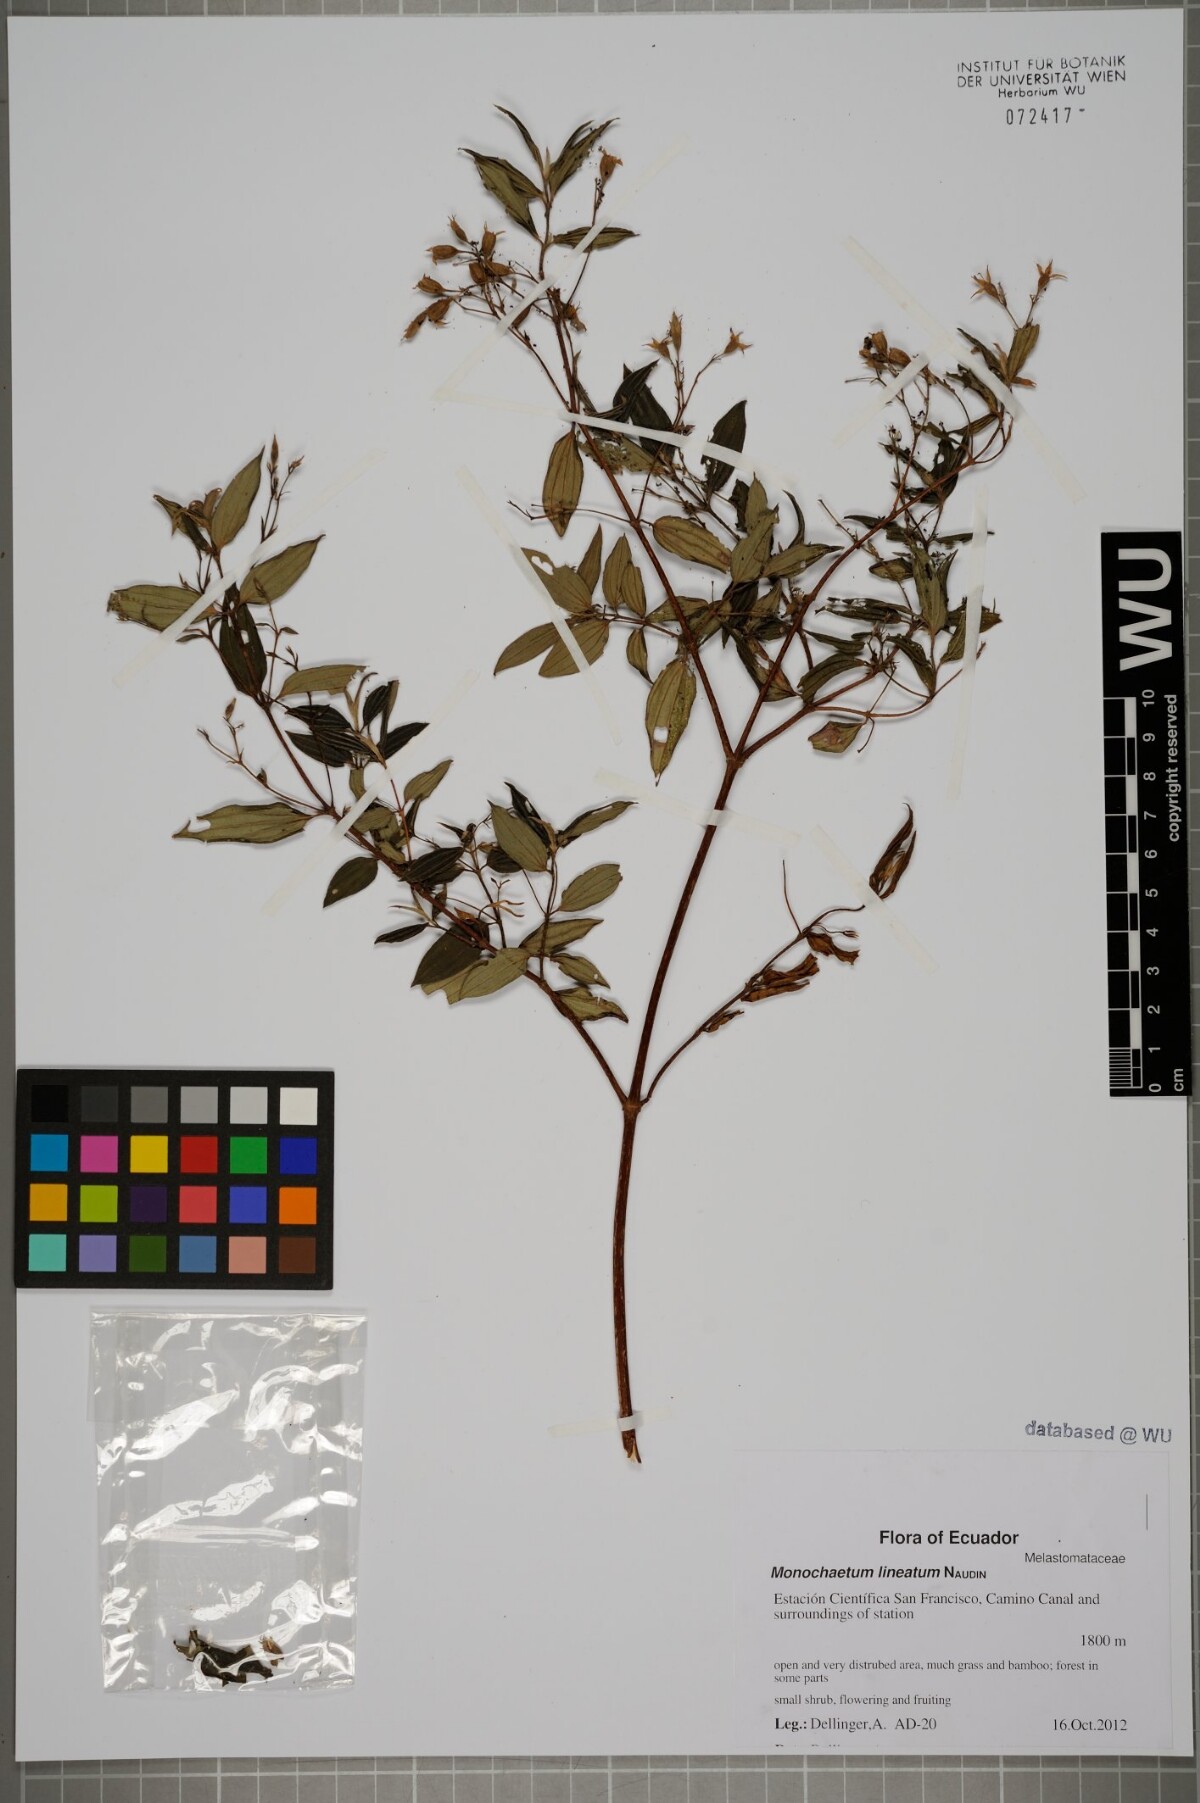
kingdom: Plantae
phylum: Tracheophyta
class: Magnoliopsida
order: Myrtales
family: Melastomataceae
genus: Monochaetum
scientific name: Monochaetum lineatum
